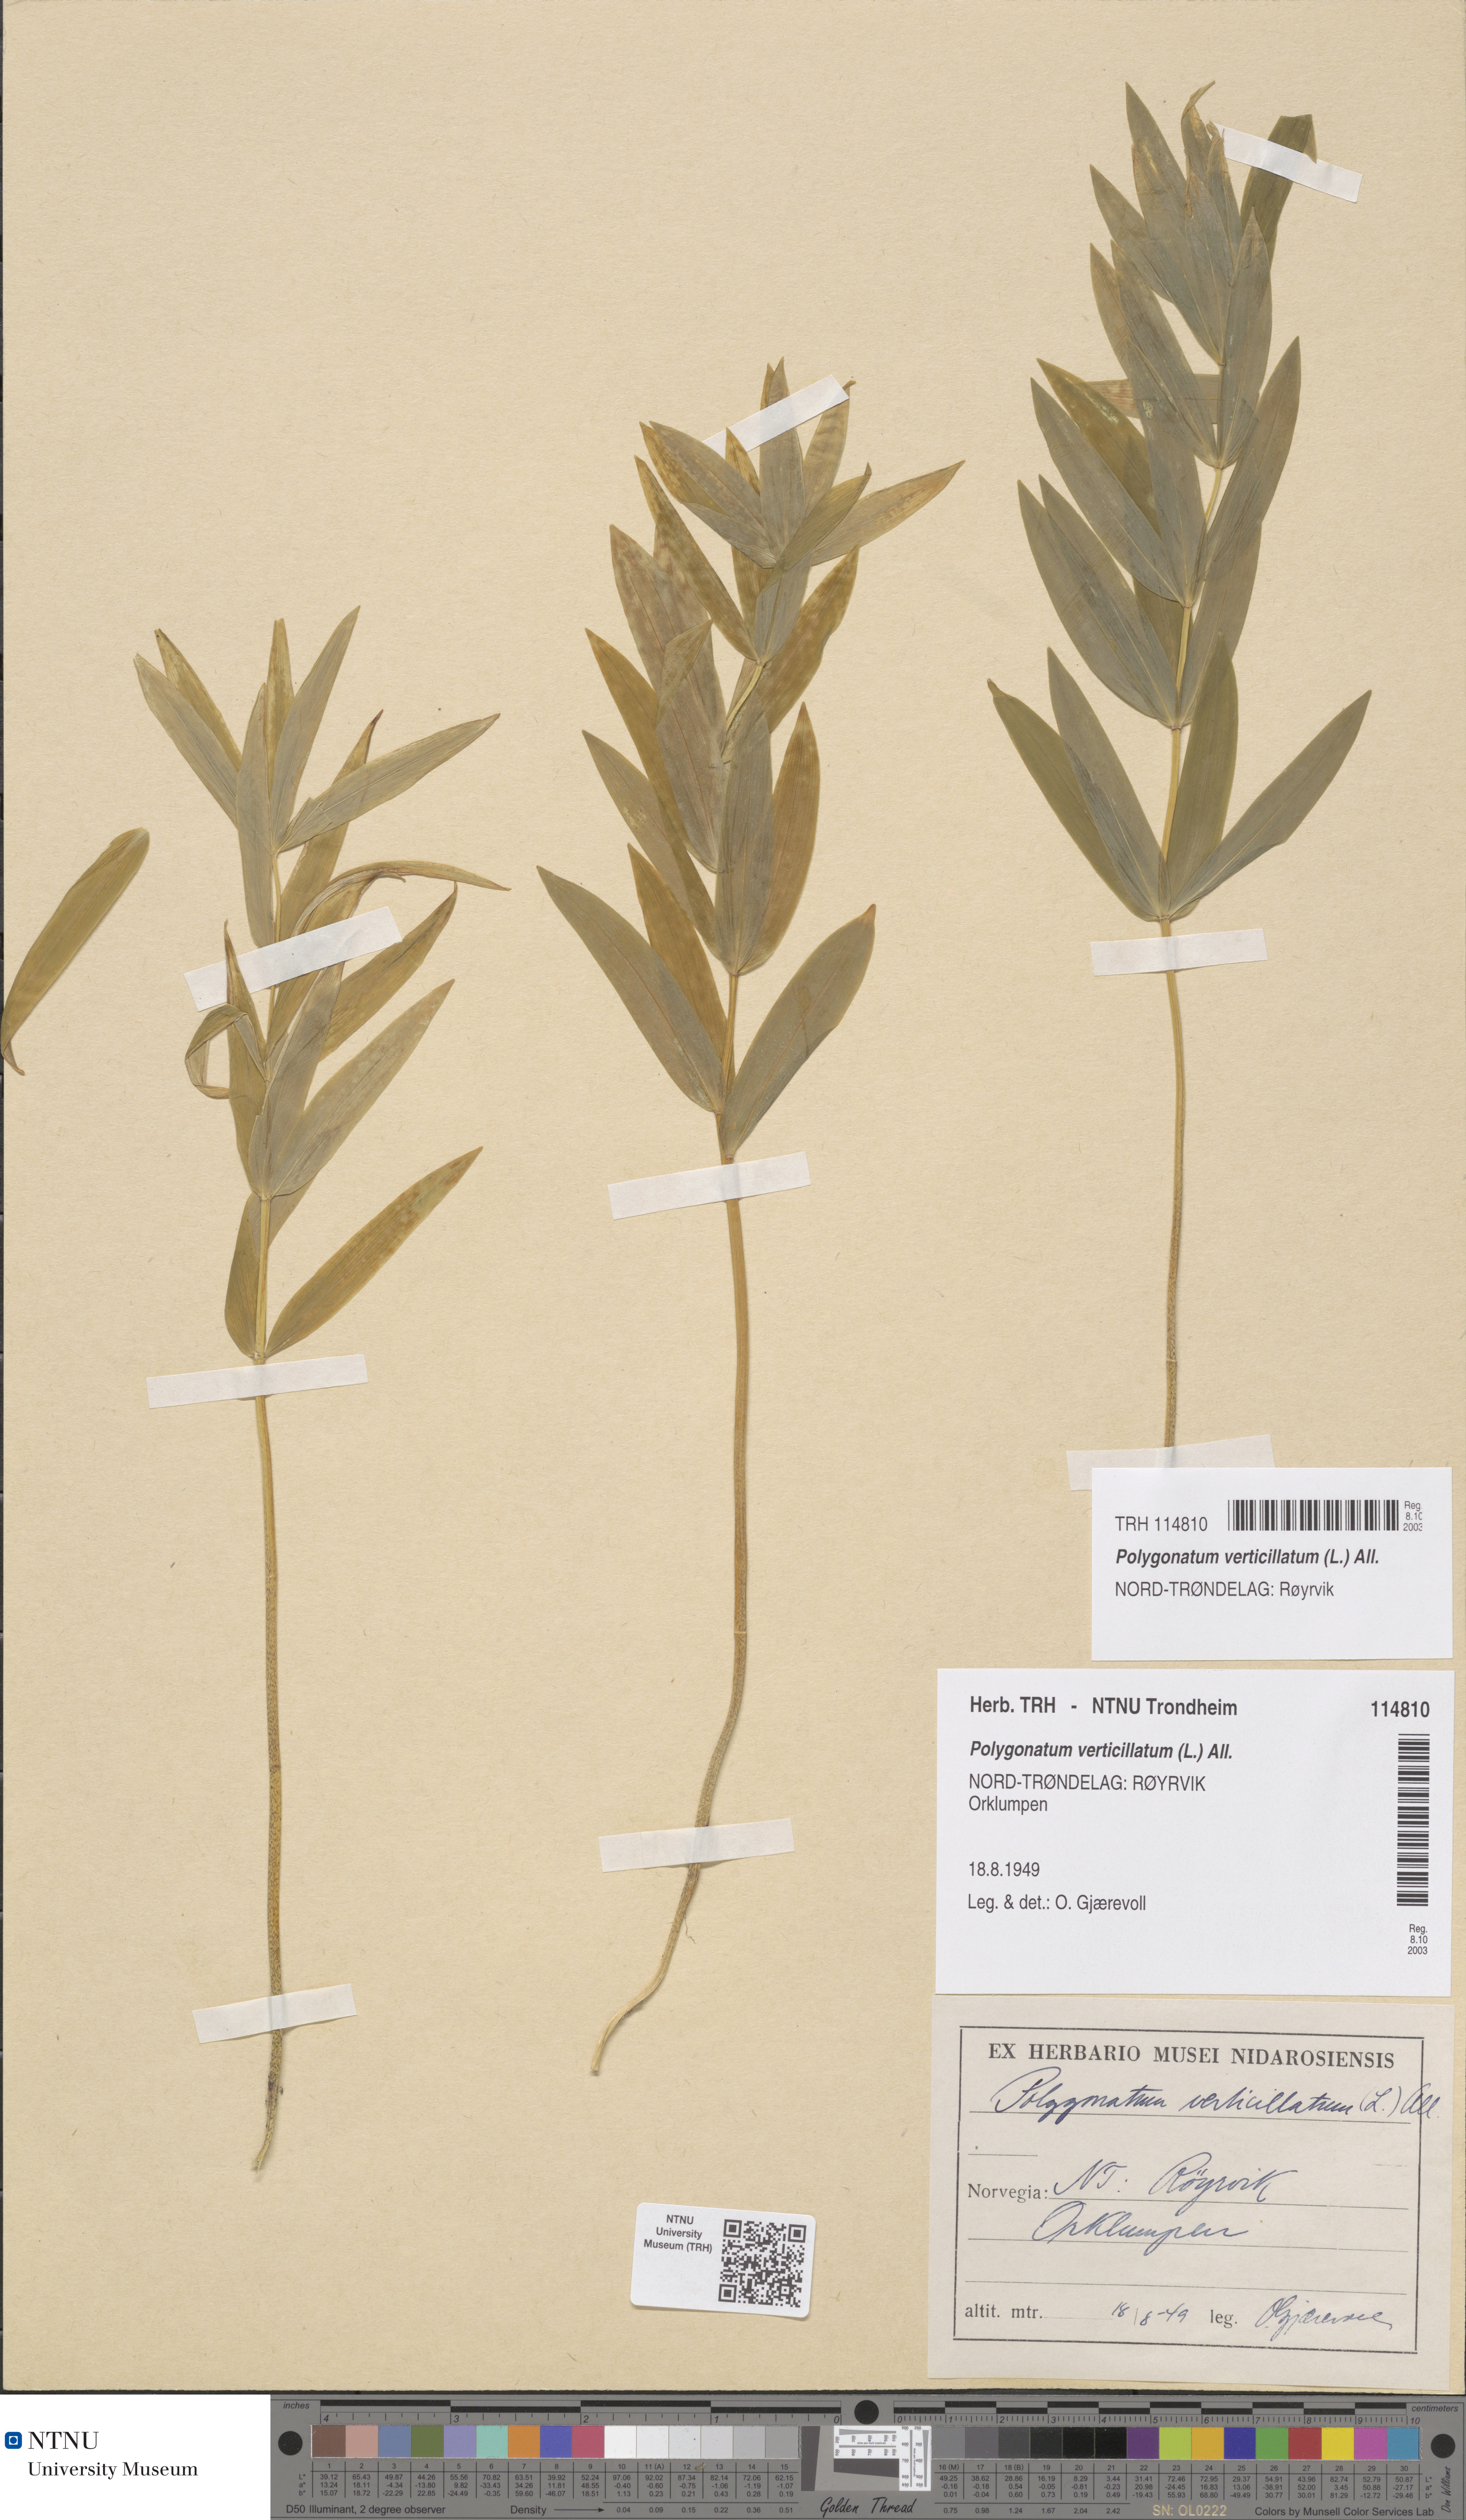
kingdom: Plantae
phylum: Tracheophyta
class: Liliopsida
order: Asparagales
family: Asparagaceae
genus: Polygonatum
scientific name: Polygonatum verticillatum
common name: Whorled solomon's-seal
